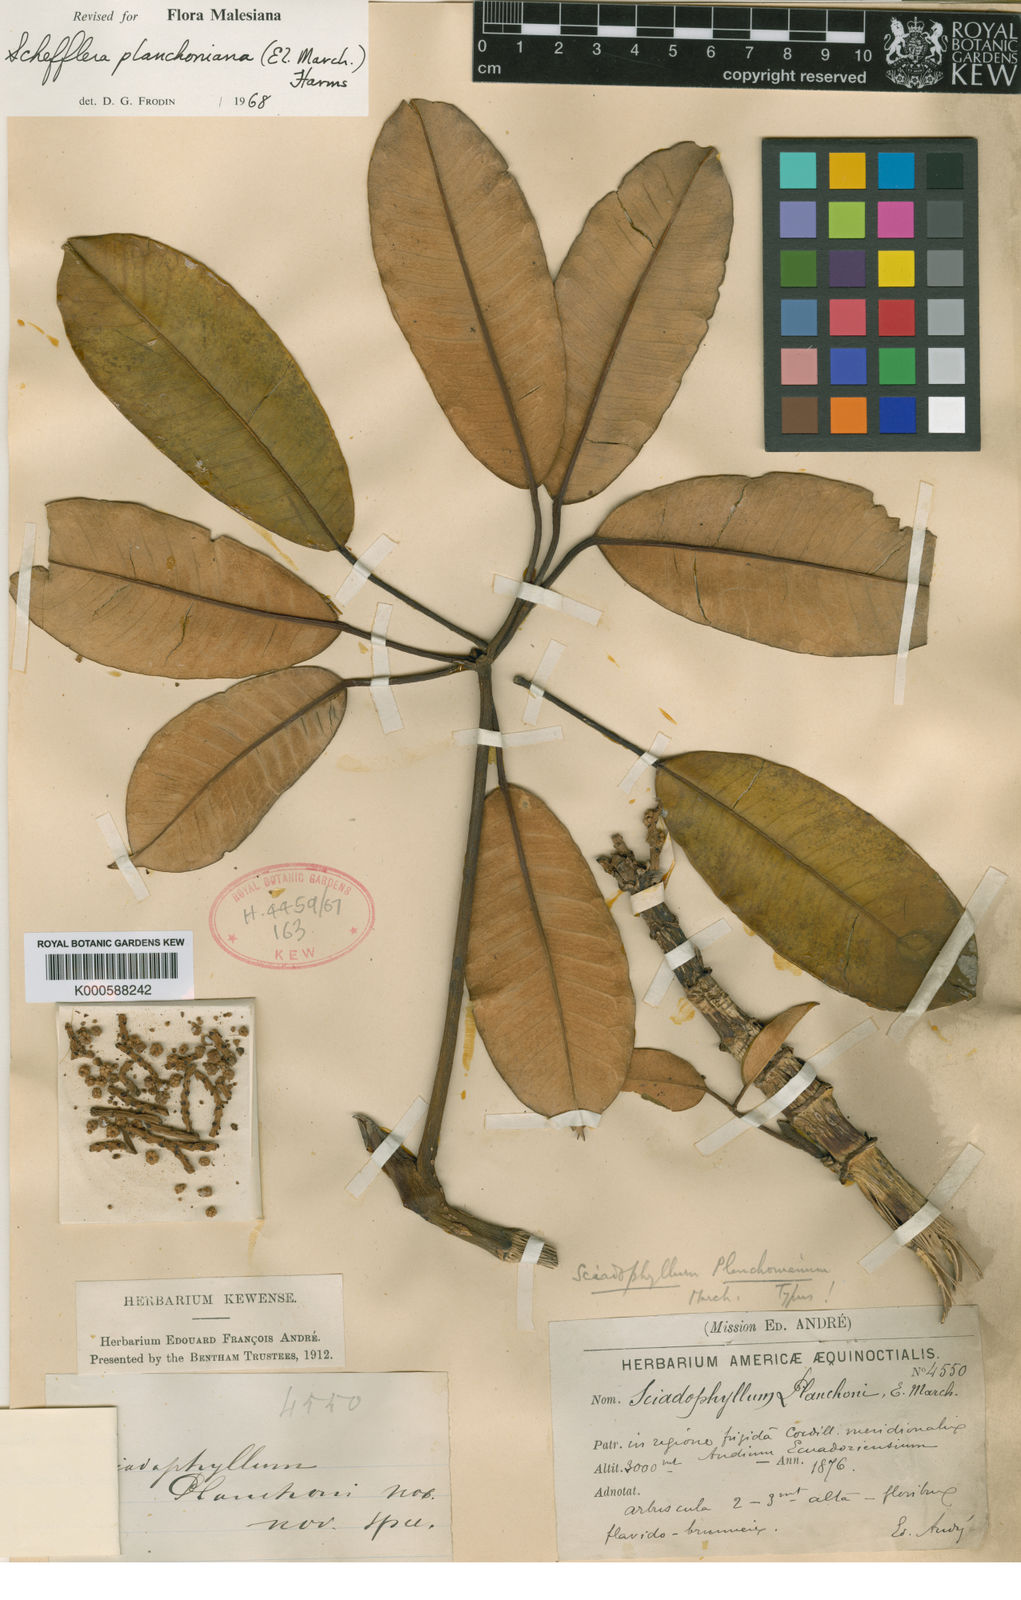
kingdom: Plantae
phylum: Tracheophyta
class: Magnoliopsida
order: Apiales
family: Araliaceae
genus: Sciodaphyllum
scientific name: Sciodaphyllum planchonianum
